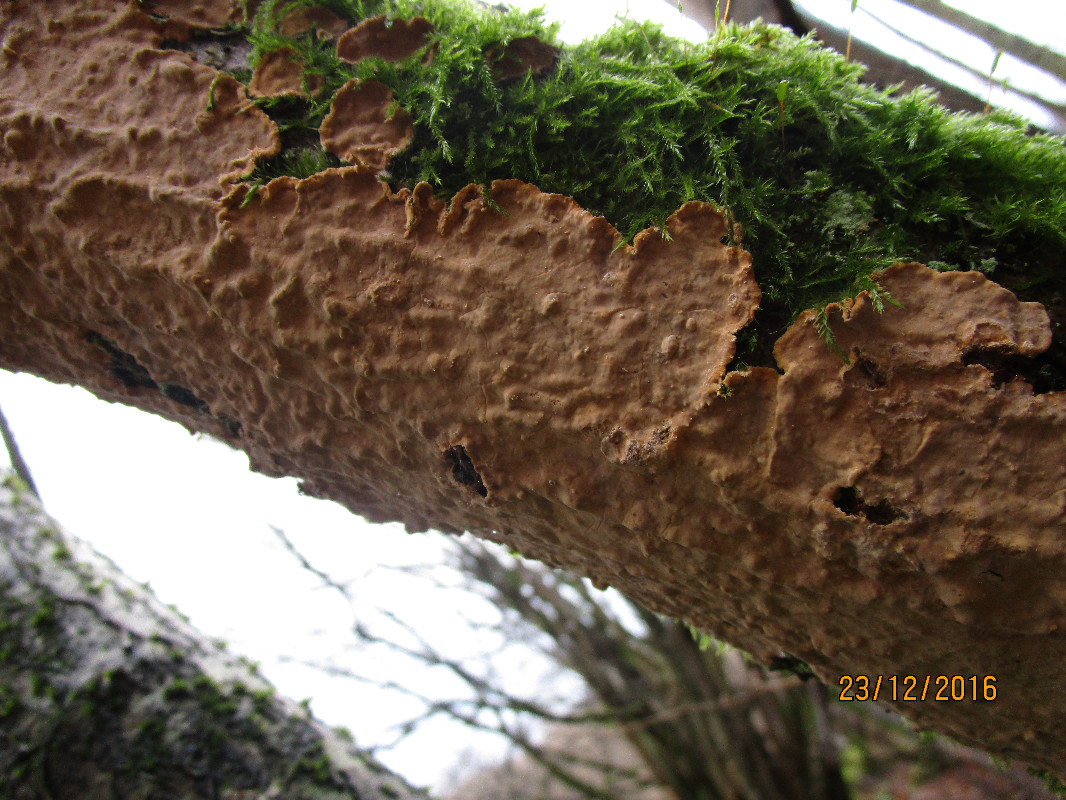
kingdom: Fungi
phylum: Basidiomycota
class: Agaricomycetes
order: Russulales
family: Stereaceae
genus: Stereum
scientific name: Stereum rugosum
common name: rynket lædersvamp
